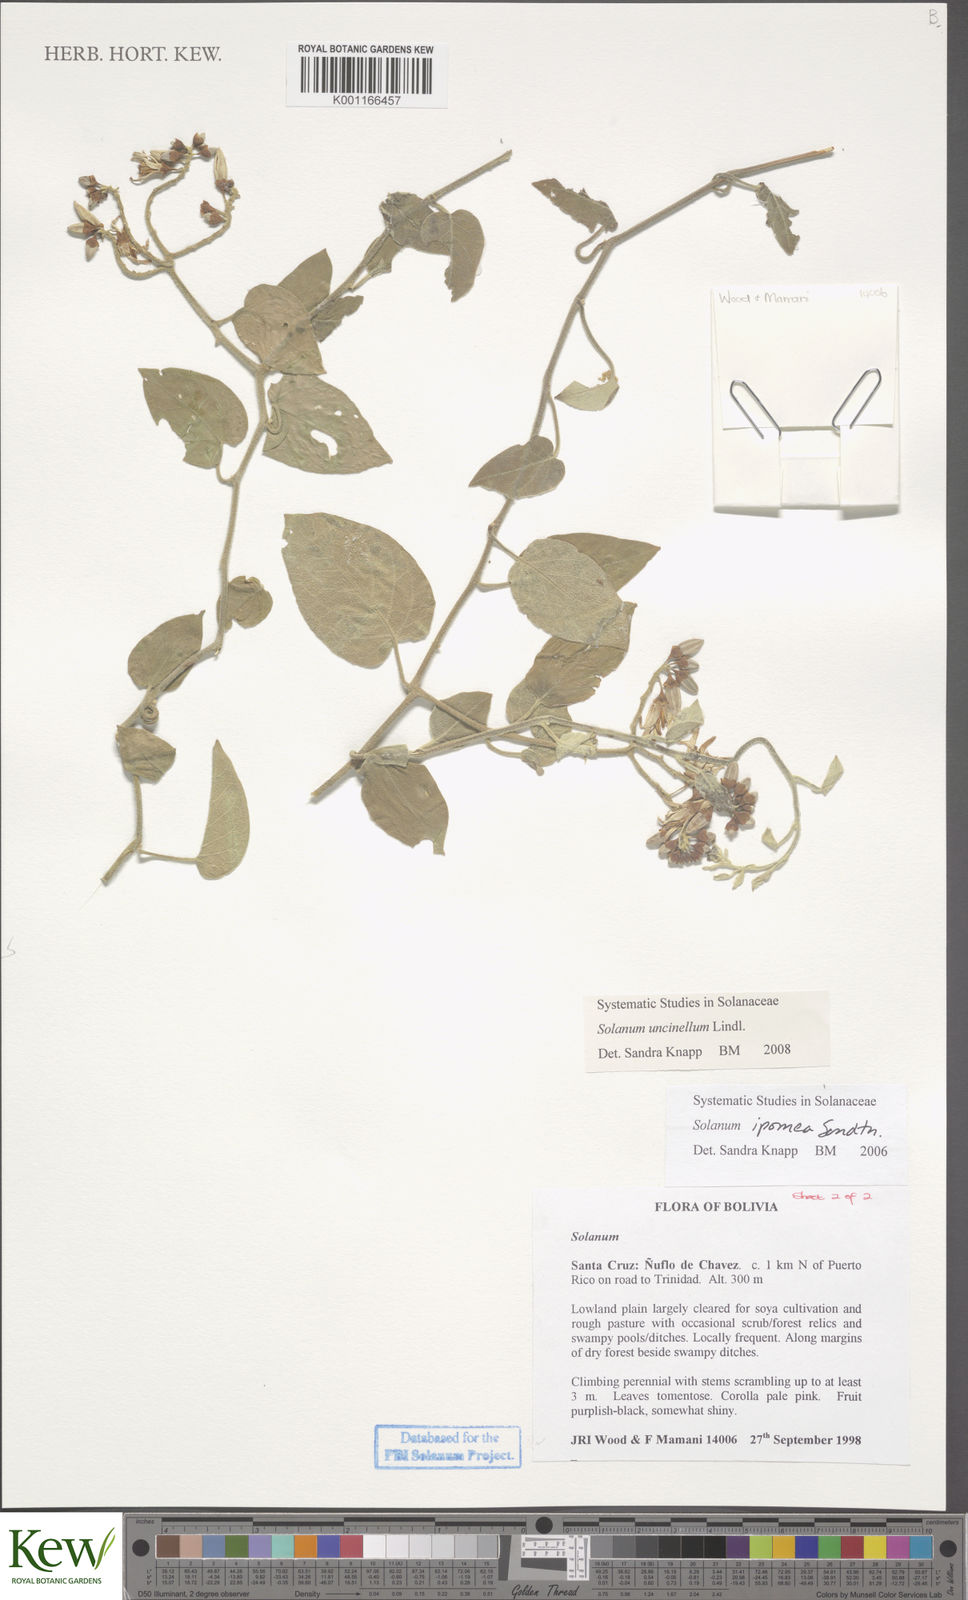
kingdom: Plantae
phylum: Tracheophyta
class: Magnoliopsida
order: Solanales
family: Solanaceae
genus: Solanum
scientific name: Solanum uncinellum
